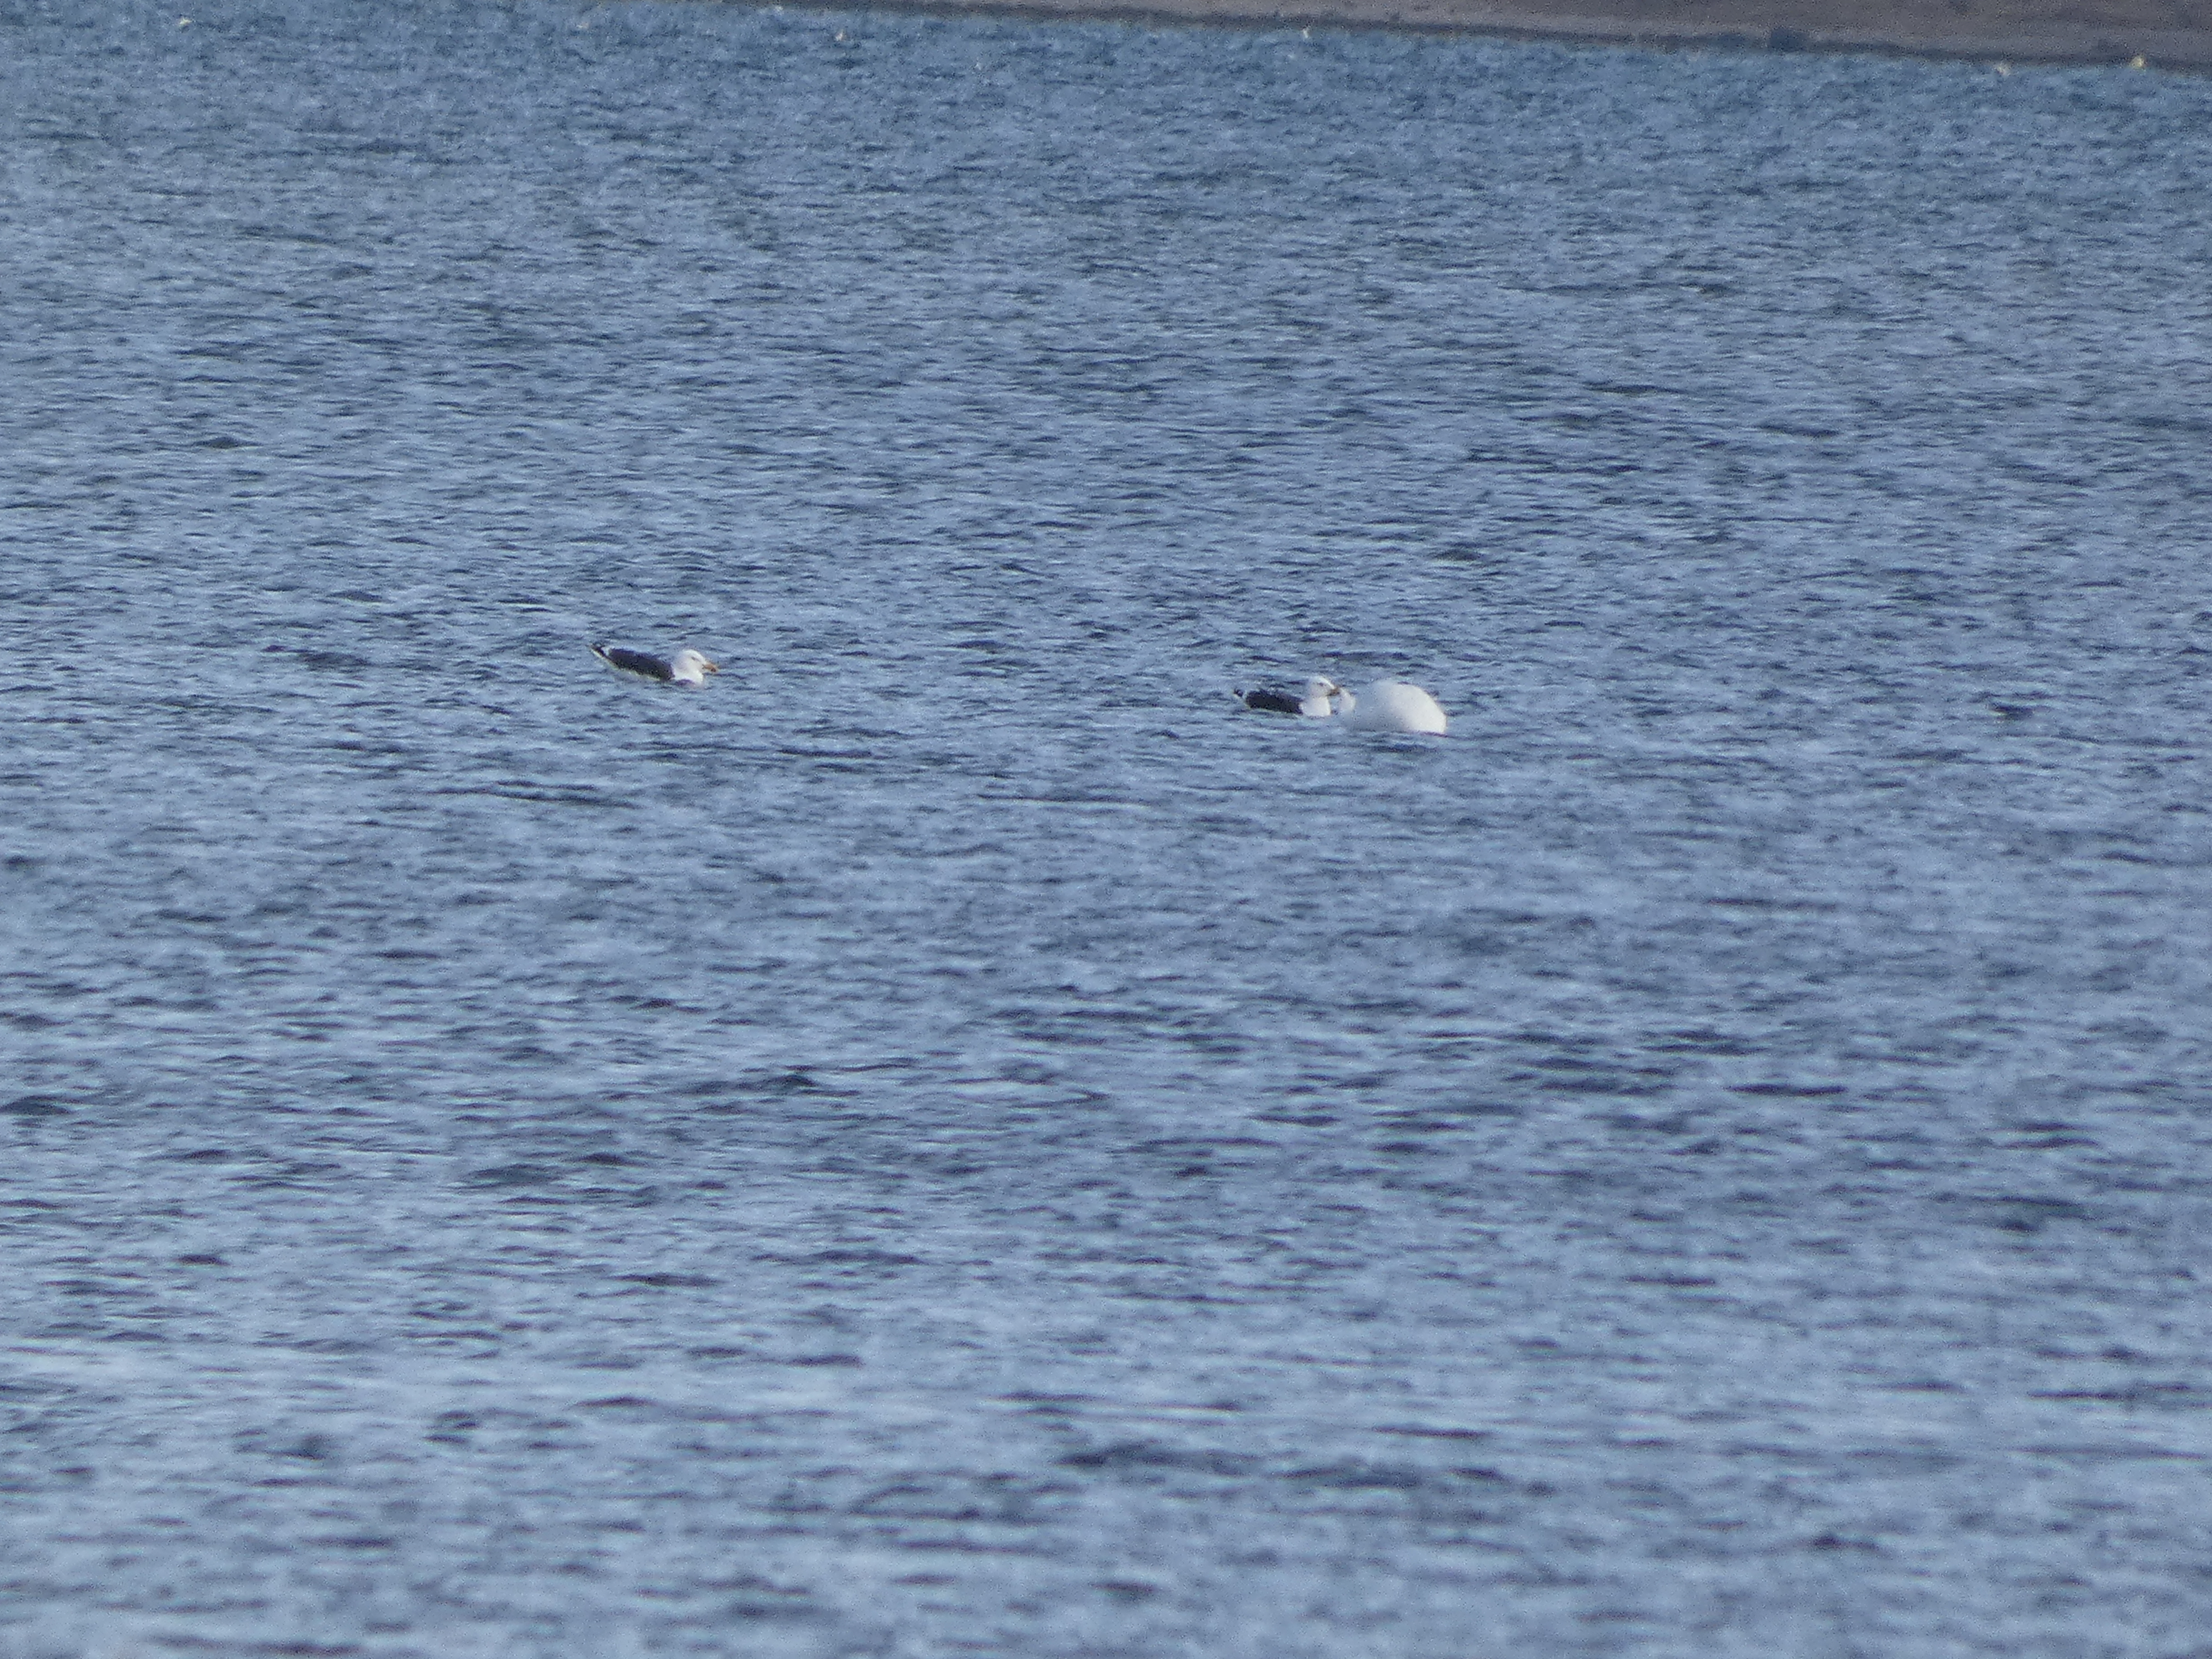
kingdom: Animalia
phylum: Chordata
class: Aves
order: Charadriiformes
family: Laridae
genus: Larus
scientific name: Larus marinus
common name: Svartbag
